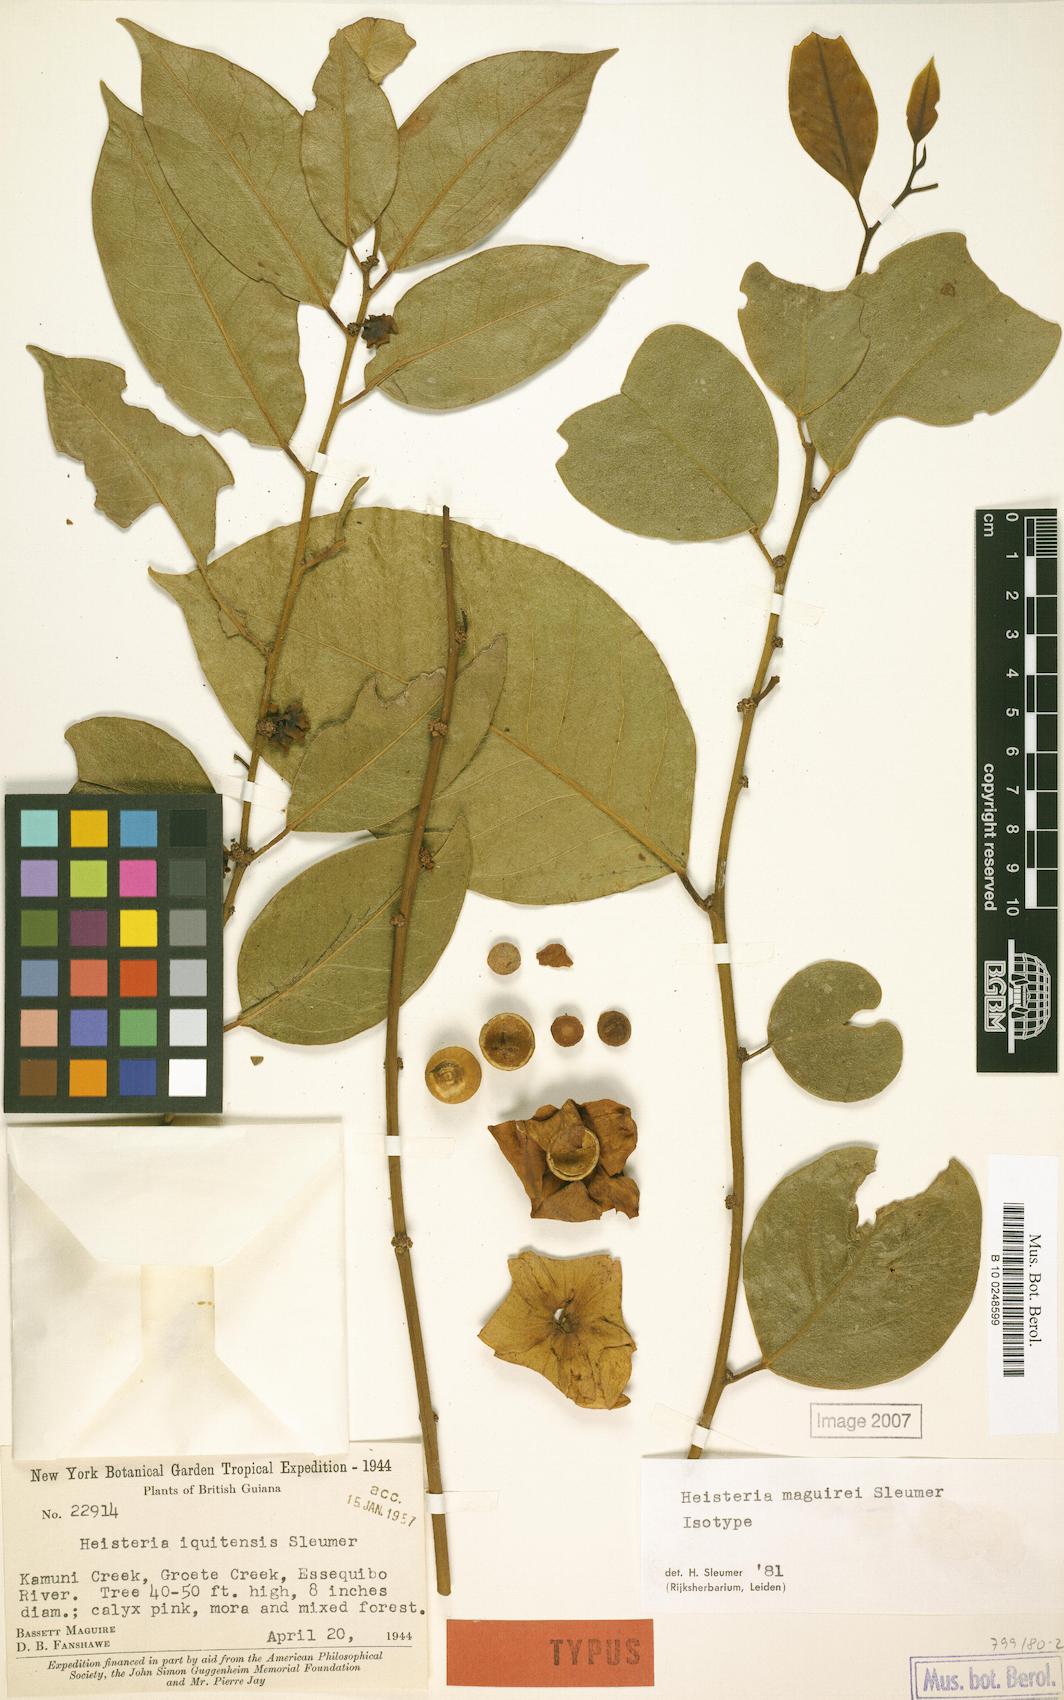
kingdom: Plantae
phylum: Tracheophyta
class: Magnoliopsida
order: Santalales
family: Erythropalaceae
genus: Heisteria
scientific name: Heisteria maguirei
